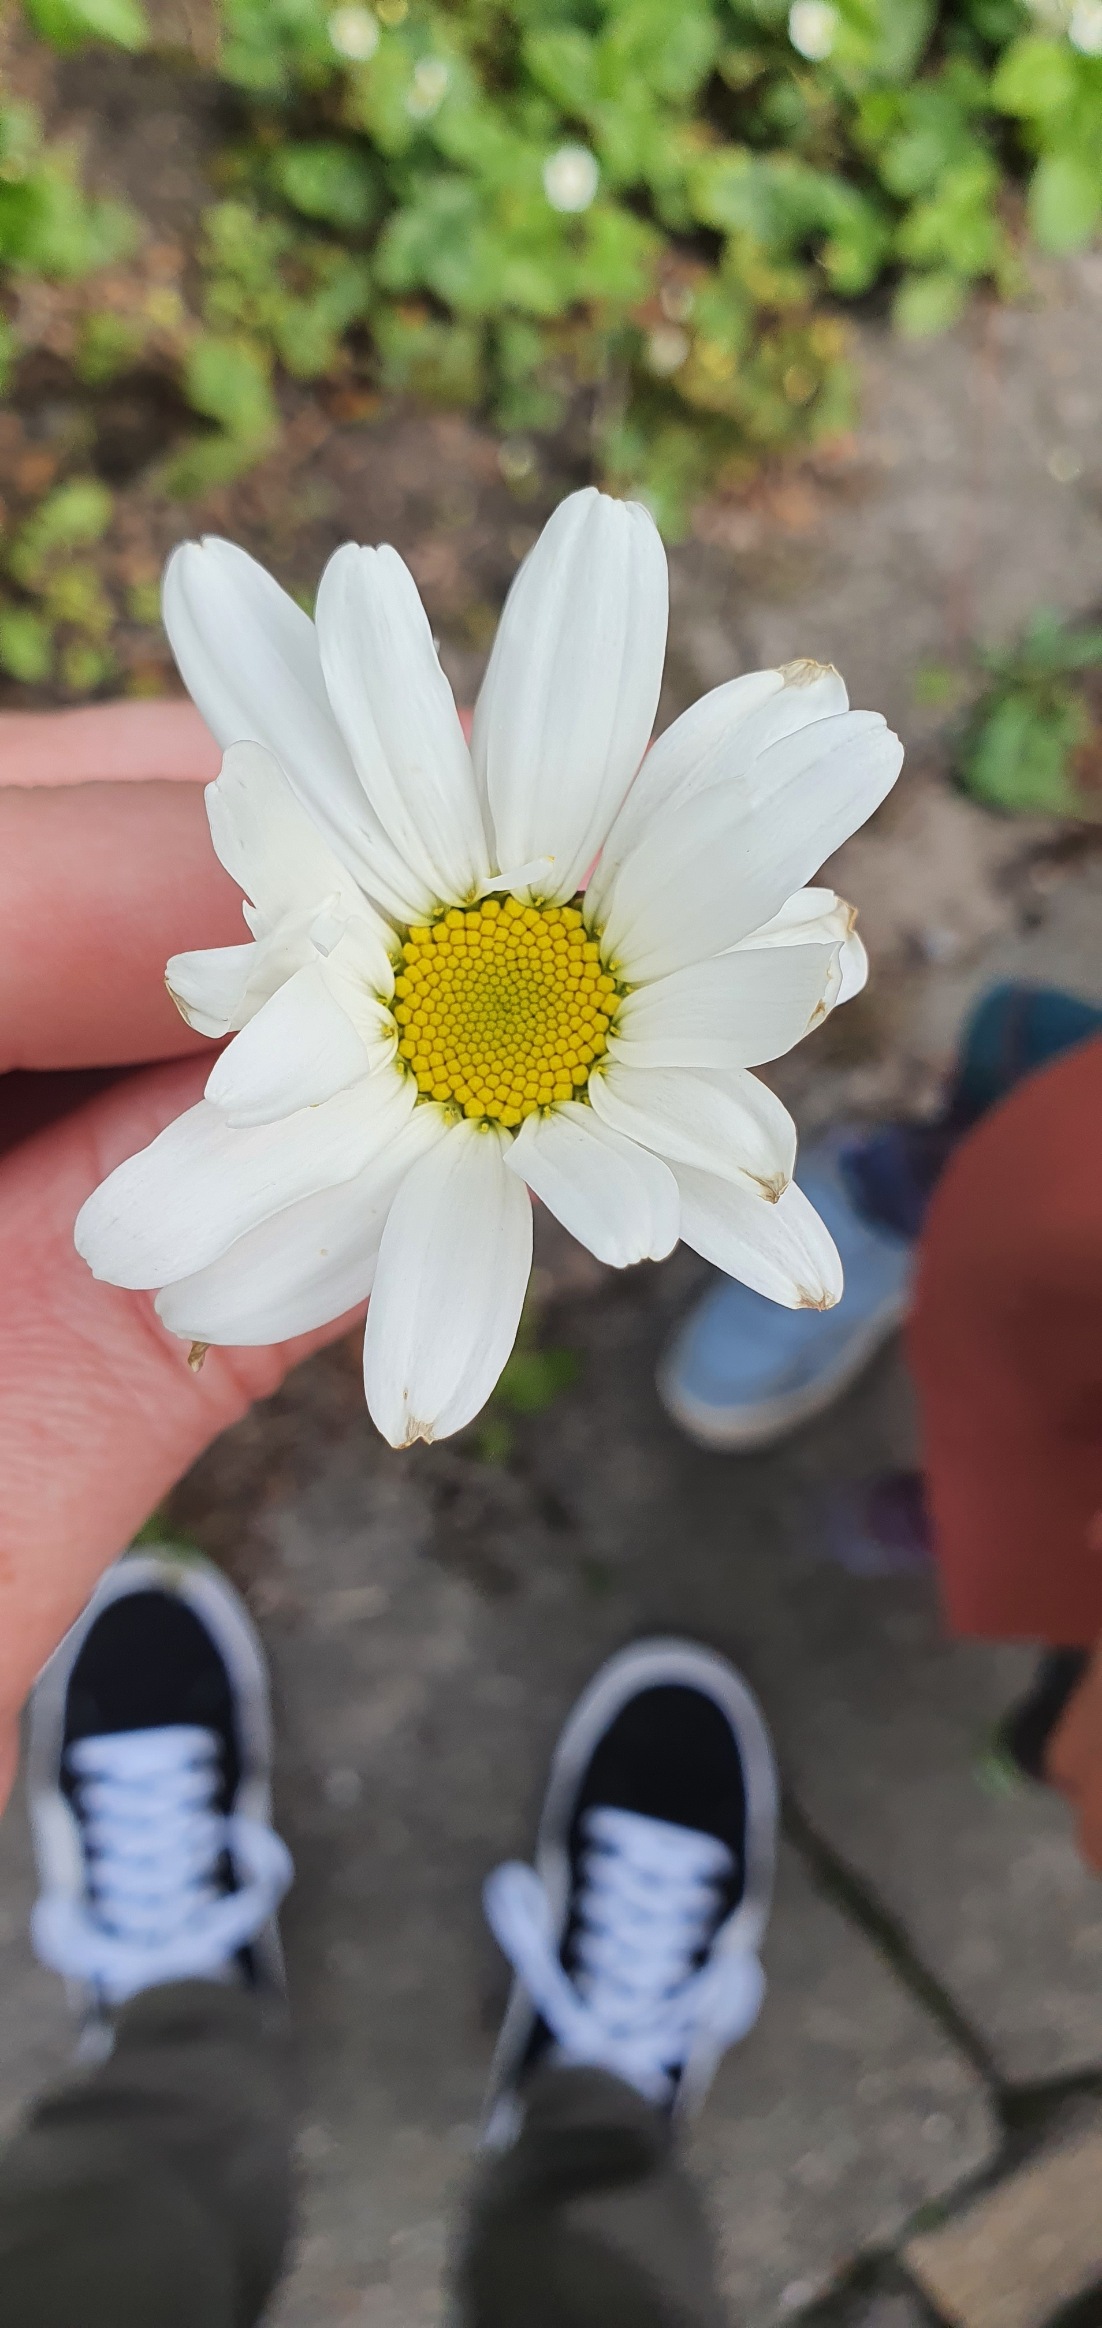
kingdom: Plantae
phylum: Tracheophyta
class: Magnoliopsida
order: Asterales
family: Asteraceae
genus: Leucanthemum
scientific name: Leucanthemum vulgare
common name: Hvid okseøje
